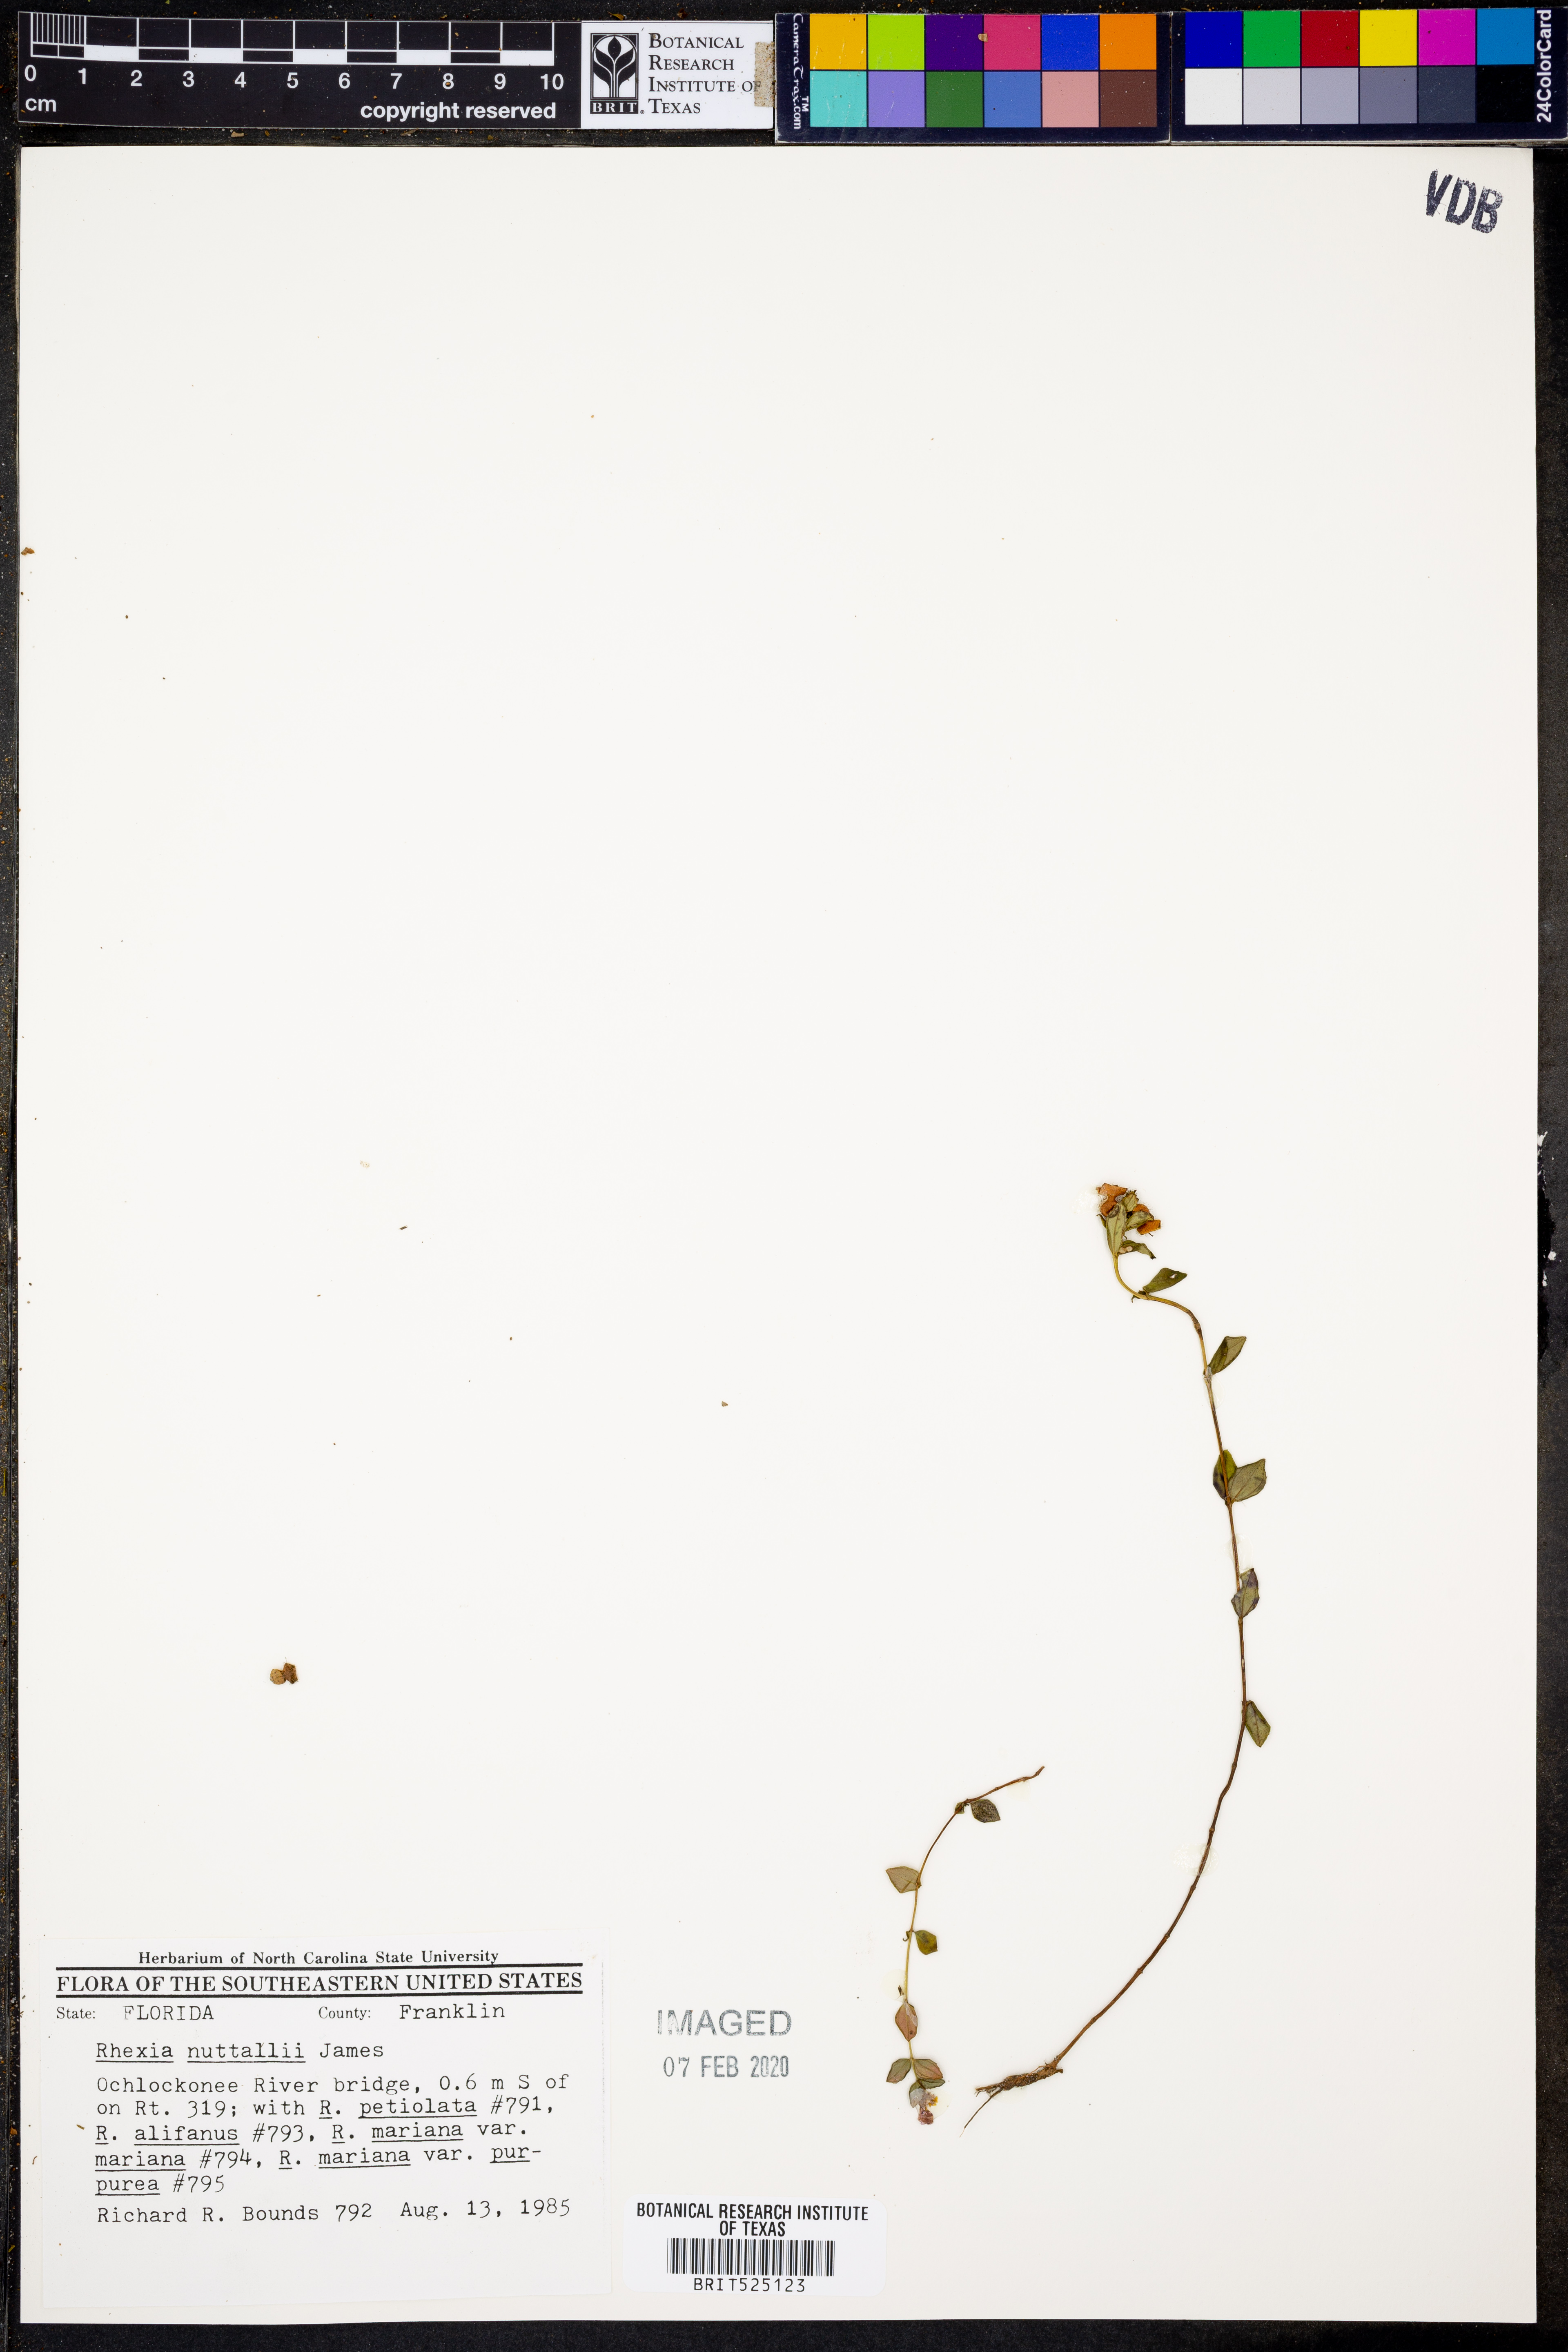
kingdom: Plantae
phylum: Tracheophyta
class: Magnoliopsida
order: Myrtales
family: Melastomataceae
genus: Rhexia
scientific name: Rhexia nuttallii
